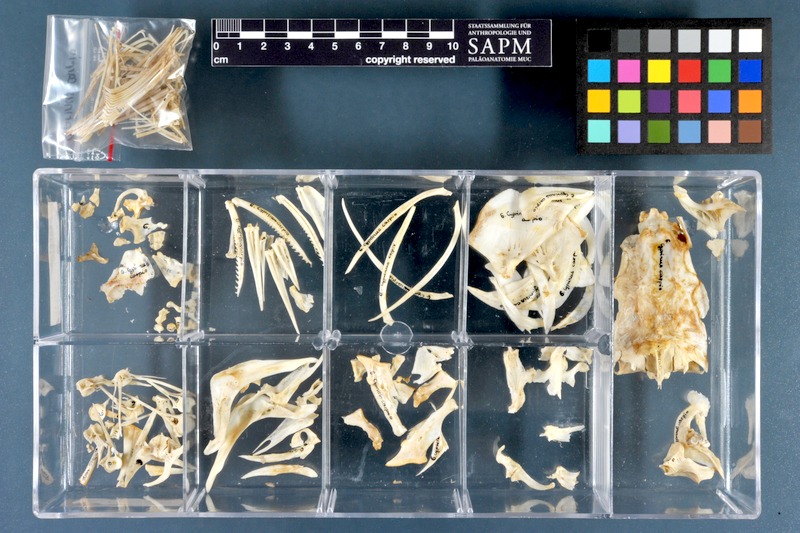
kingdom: Animalia
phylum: Chordata
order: Cypriniformes
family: Cyprinidae
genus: Cyprinus
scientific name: Cyprinus carpio
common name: Common carp
